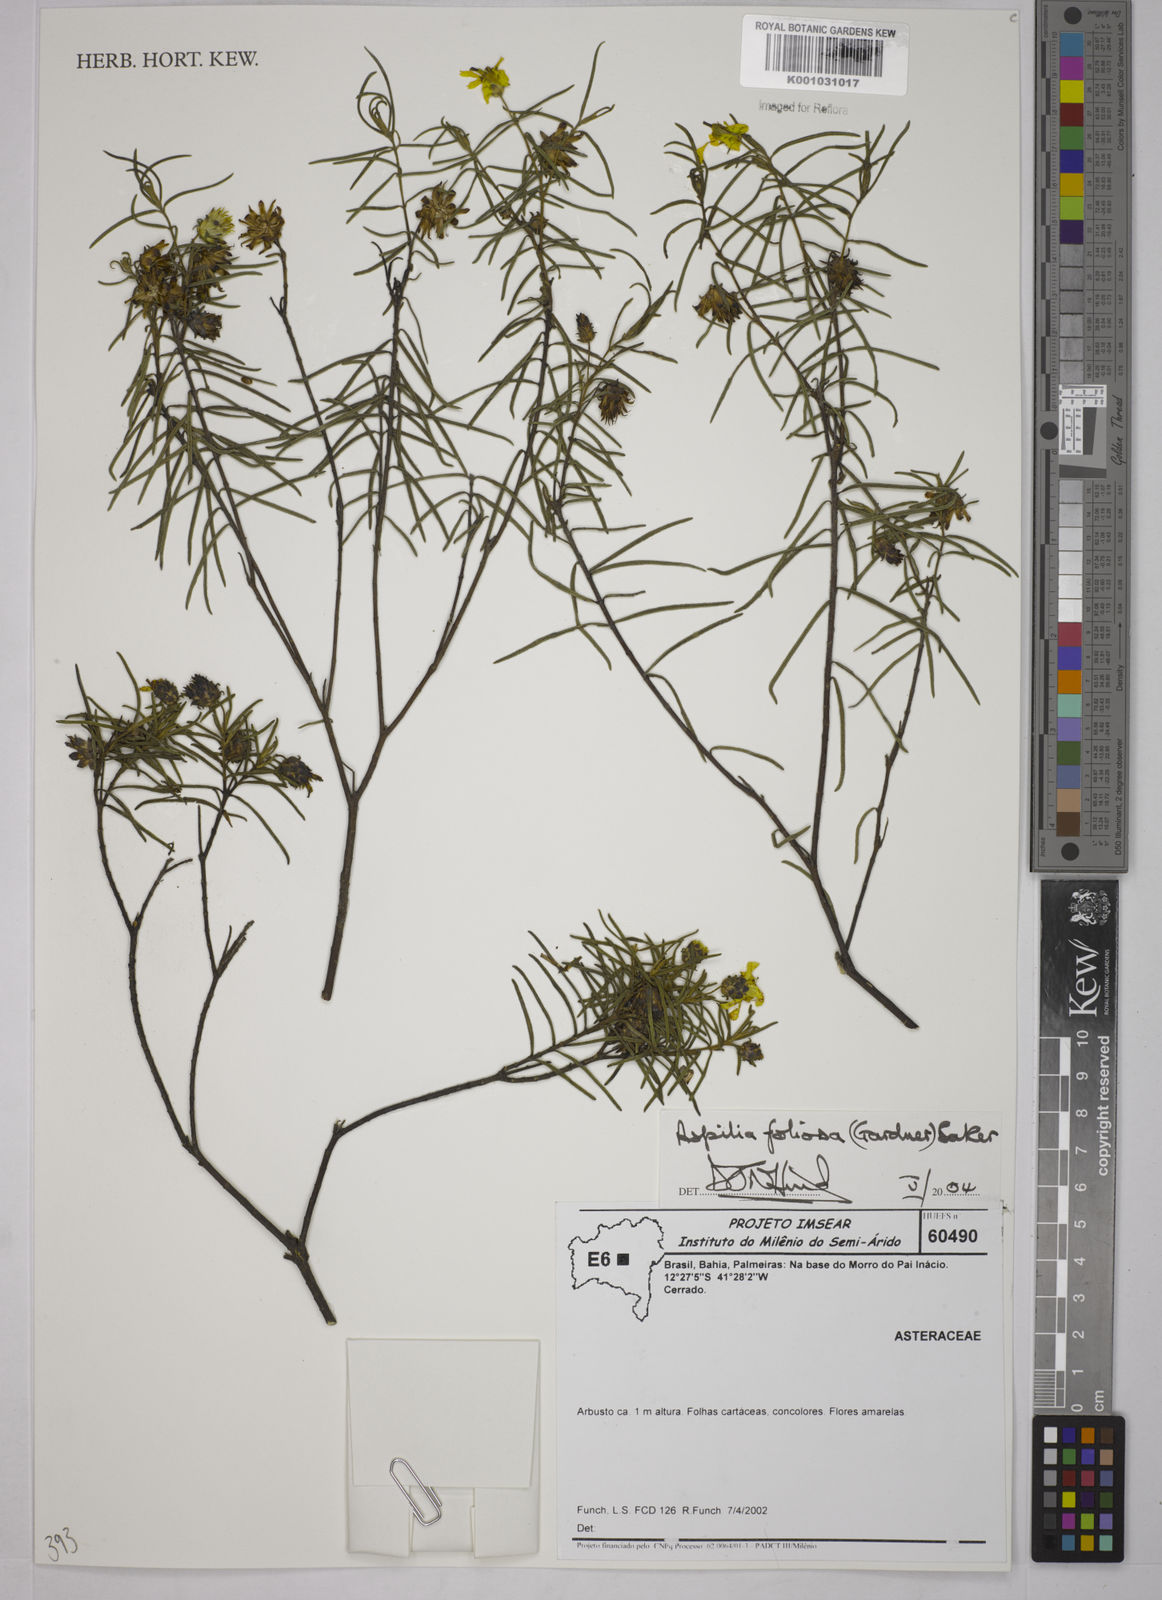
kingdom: Plantae
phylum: Tracheophyta
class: Magnoliopsida
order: Asterales
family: Asteraceae
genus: Aspilia
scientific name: Aspilia
